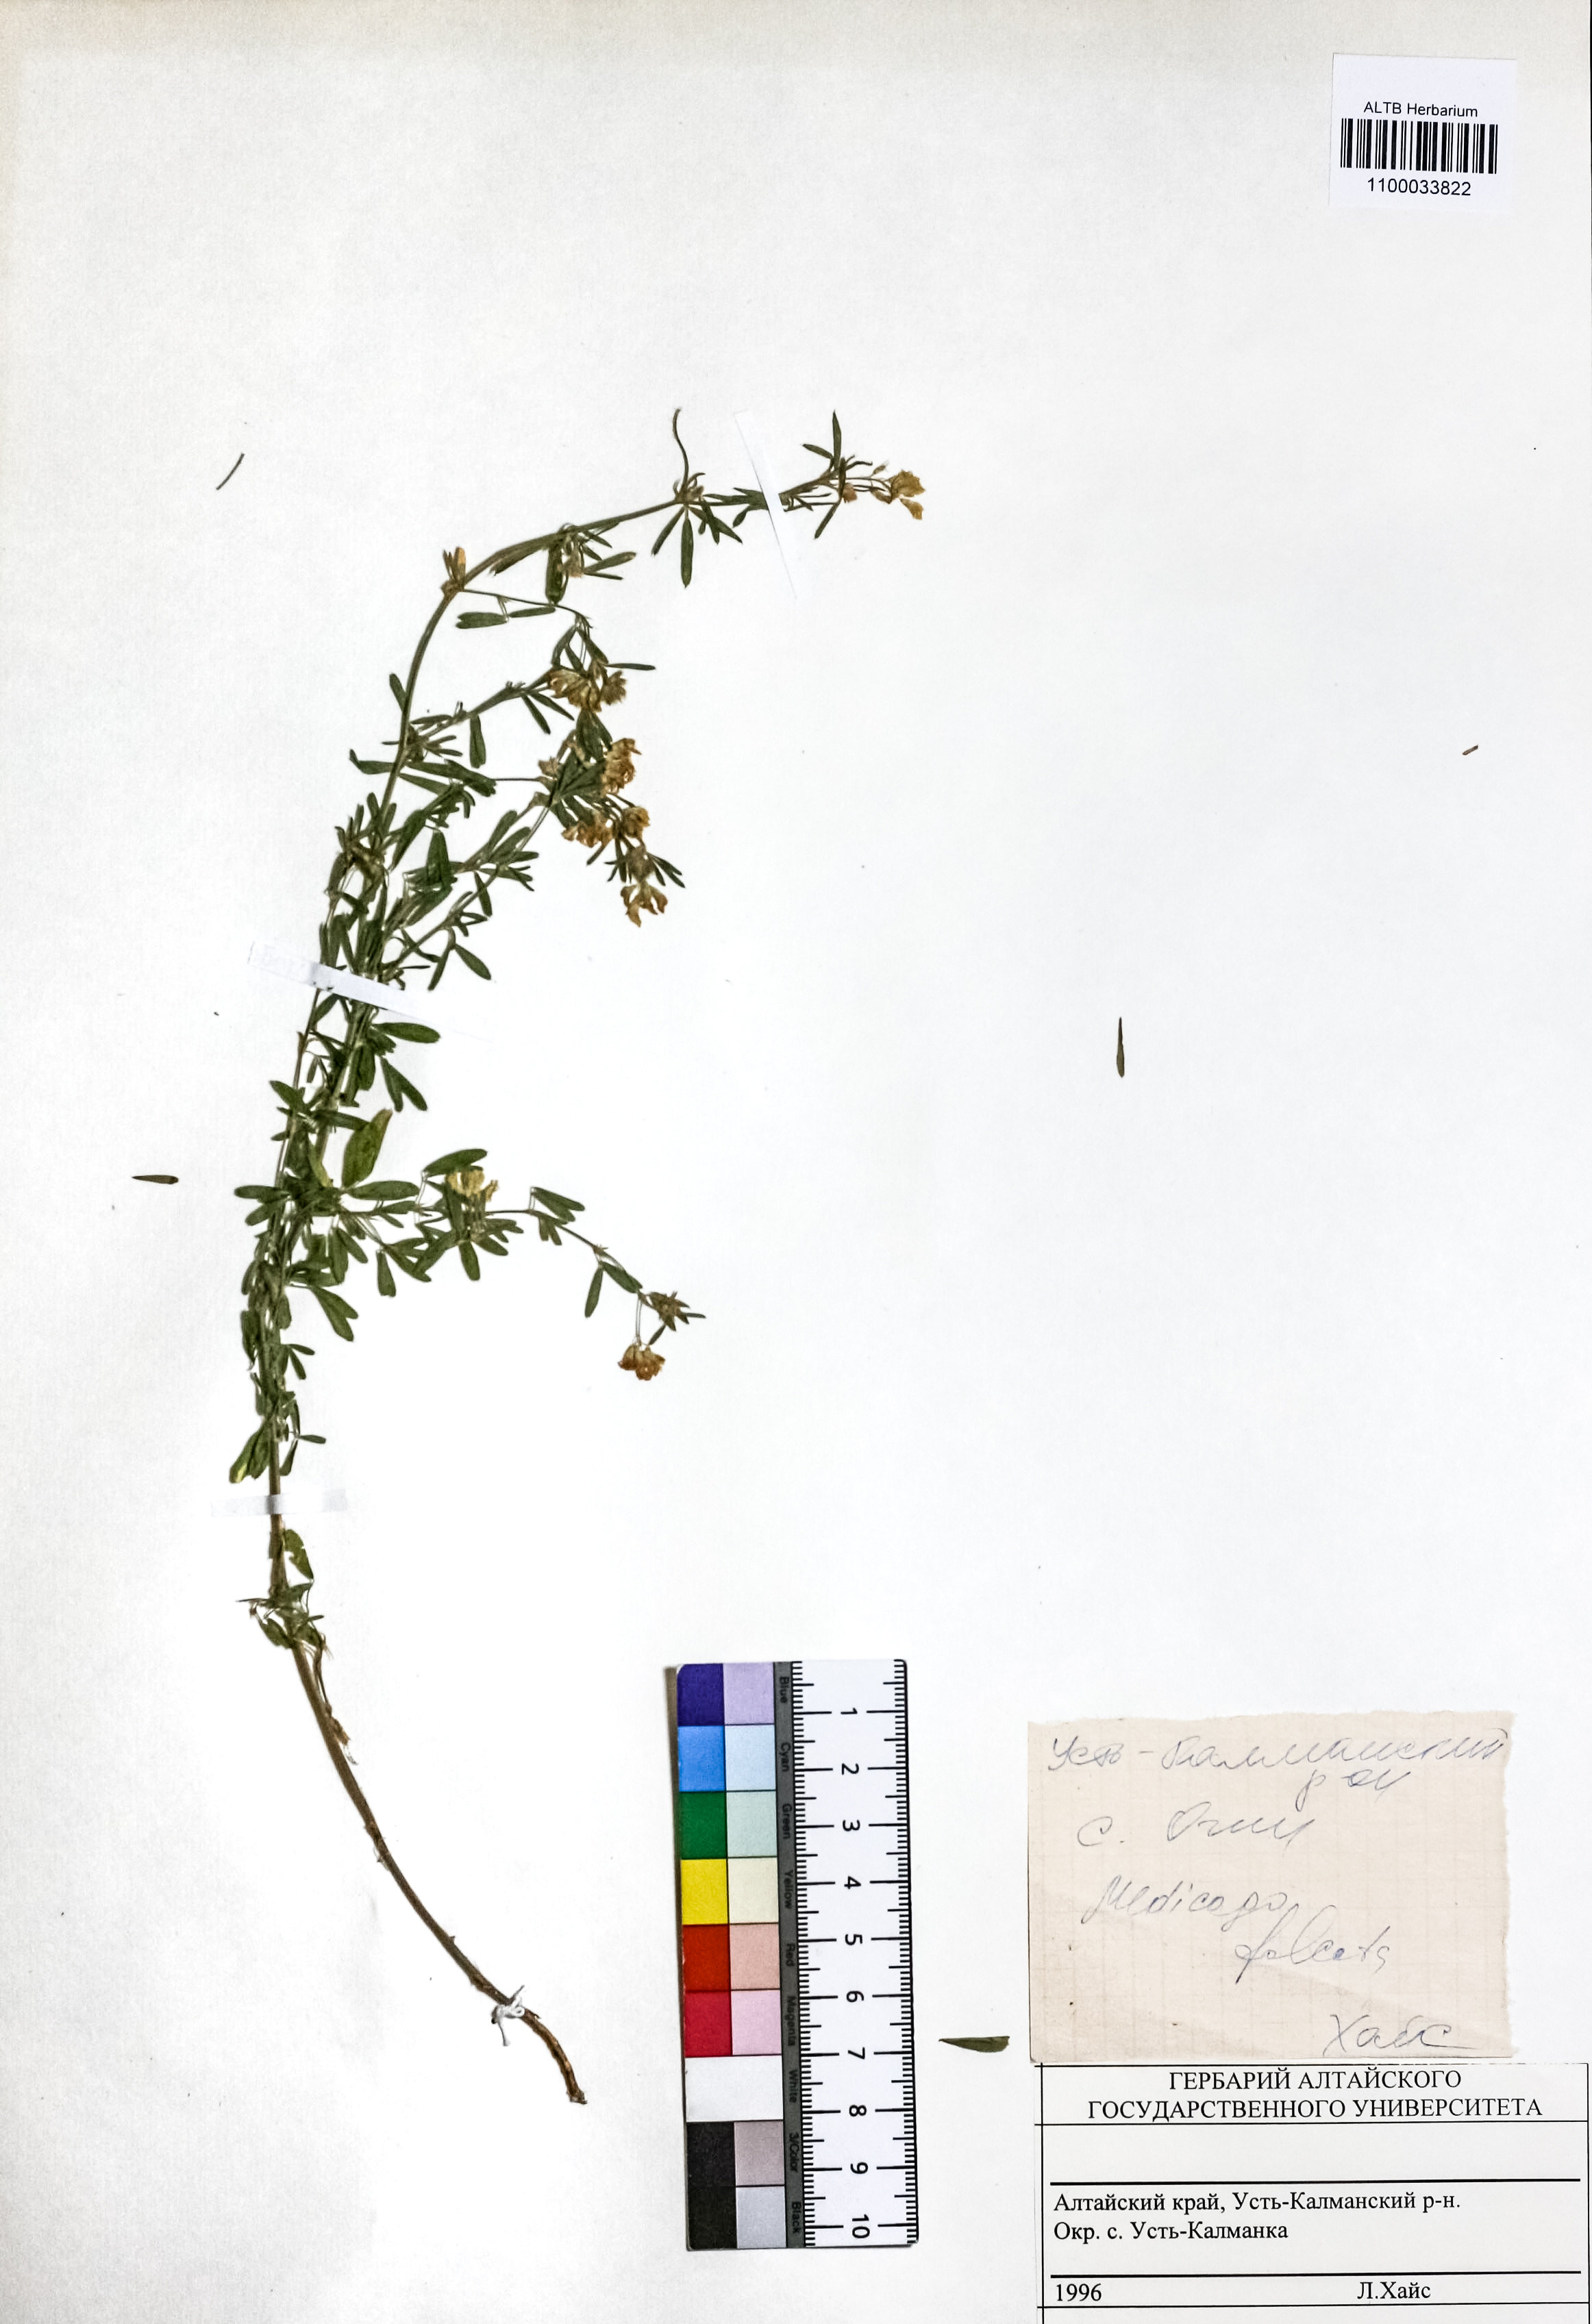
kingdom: Plantae
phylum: Tracheophyta
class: Magnoliopsida
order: Fabales
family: Fabaceae
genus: Medicago
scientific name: Medicago falcata
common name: Sickle medick
